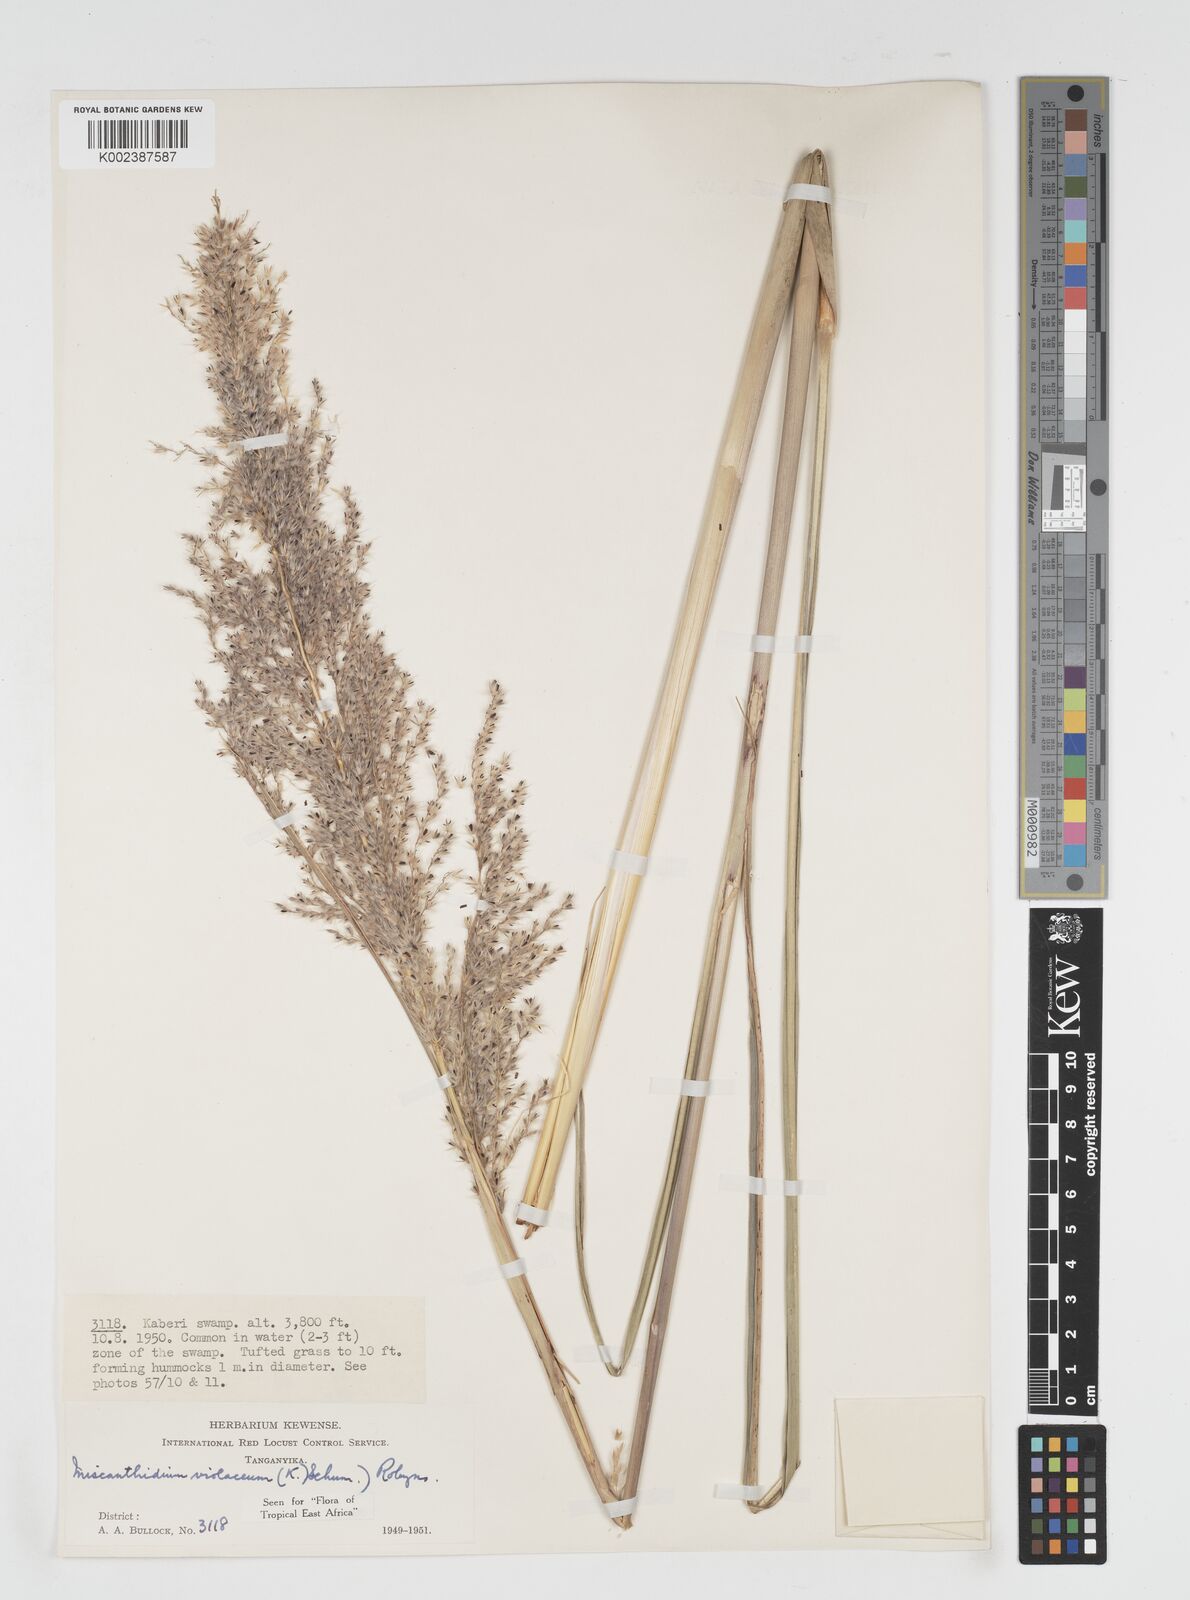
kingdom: Plantae
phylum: Tracheophyta
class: Liliopsida
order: Poales
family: Poaceae
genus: Miscanthidium
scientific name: Miscanthidium violaceum
